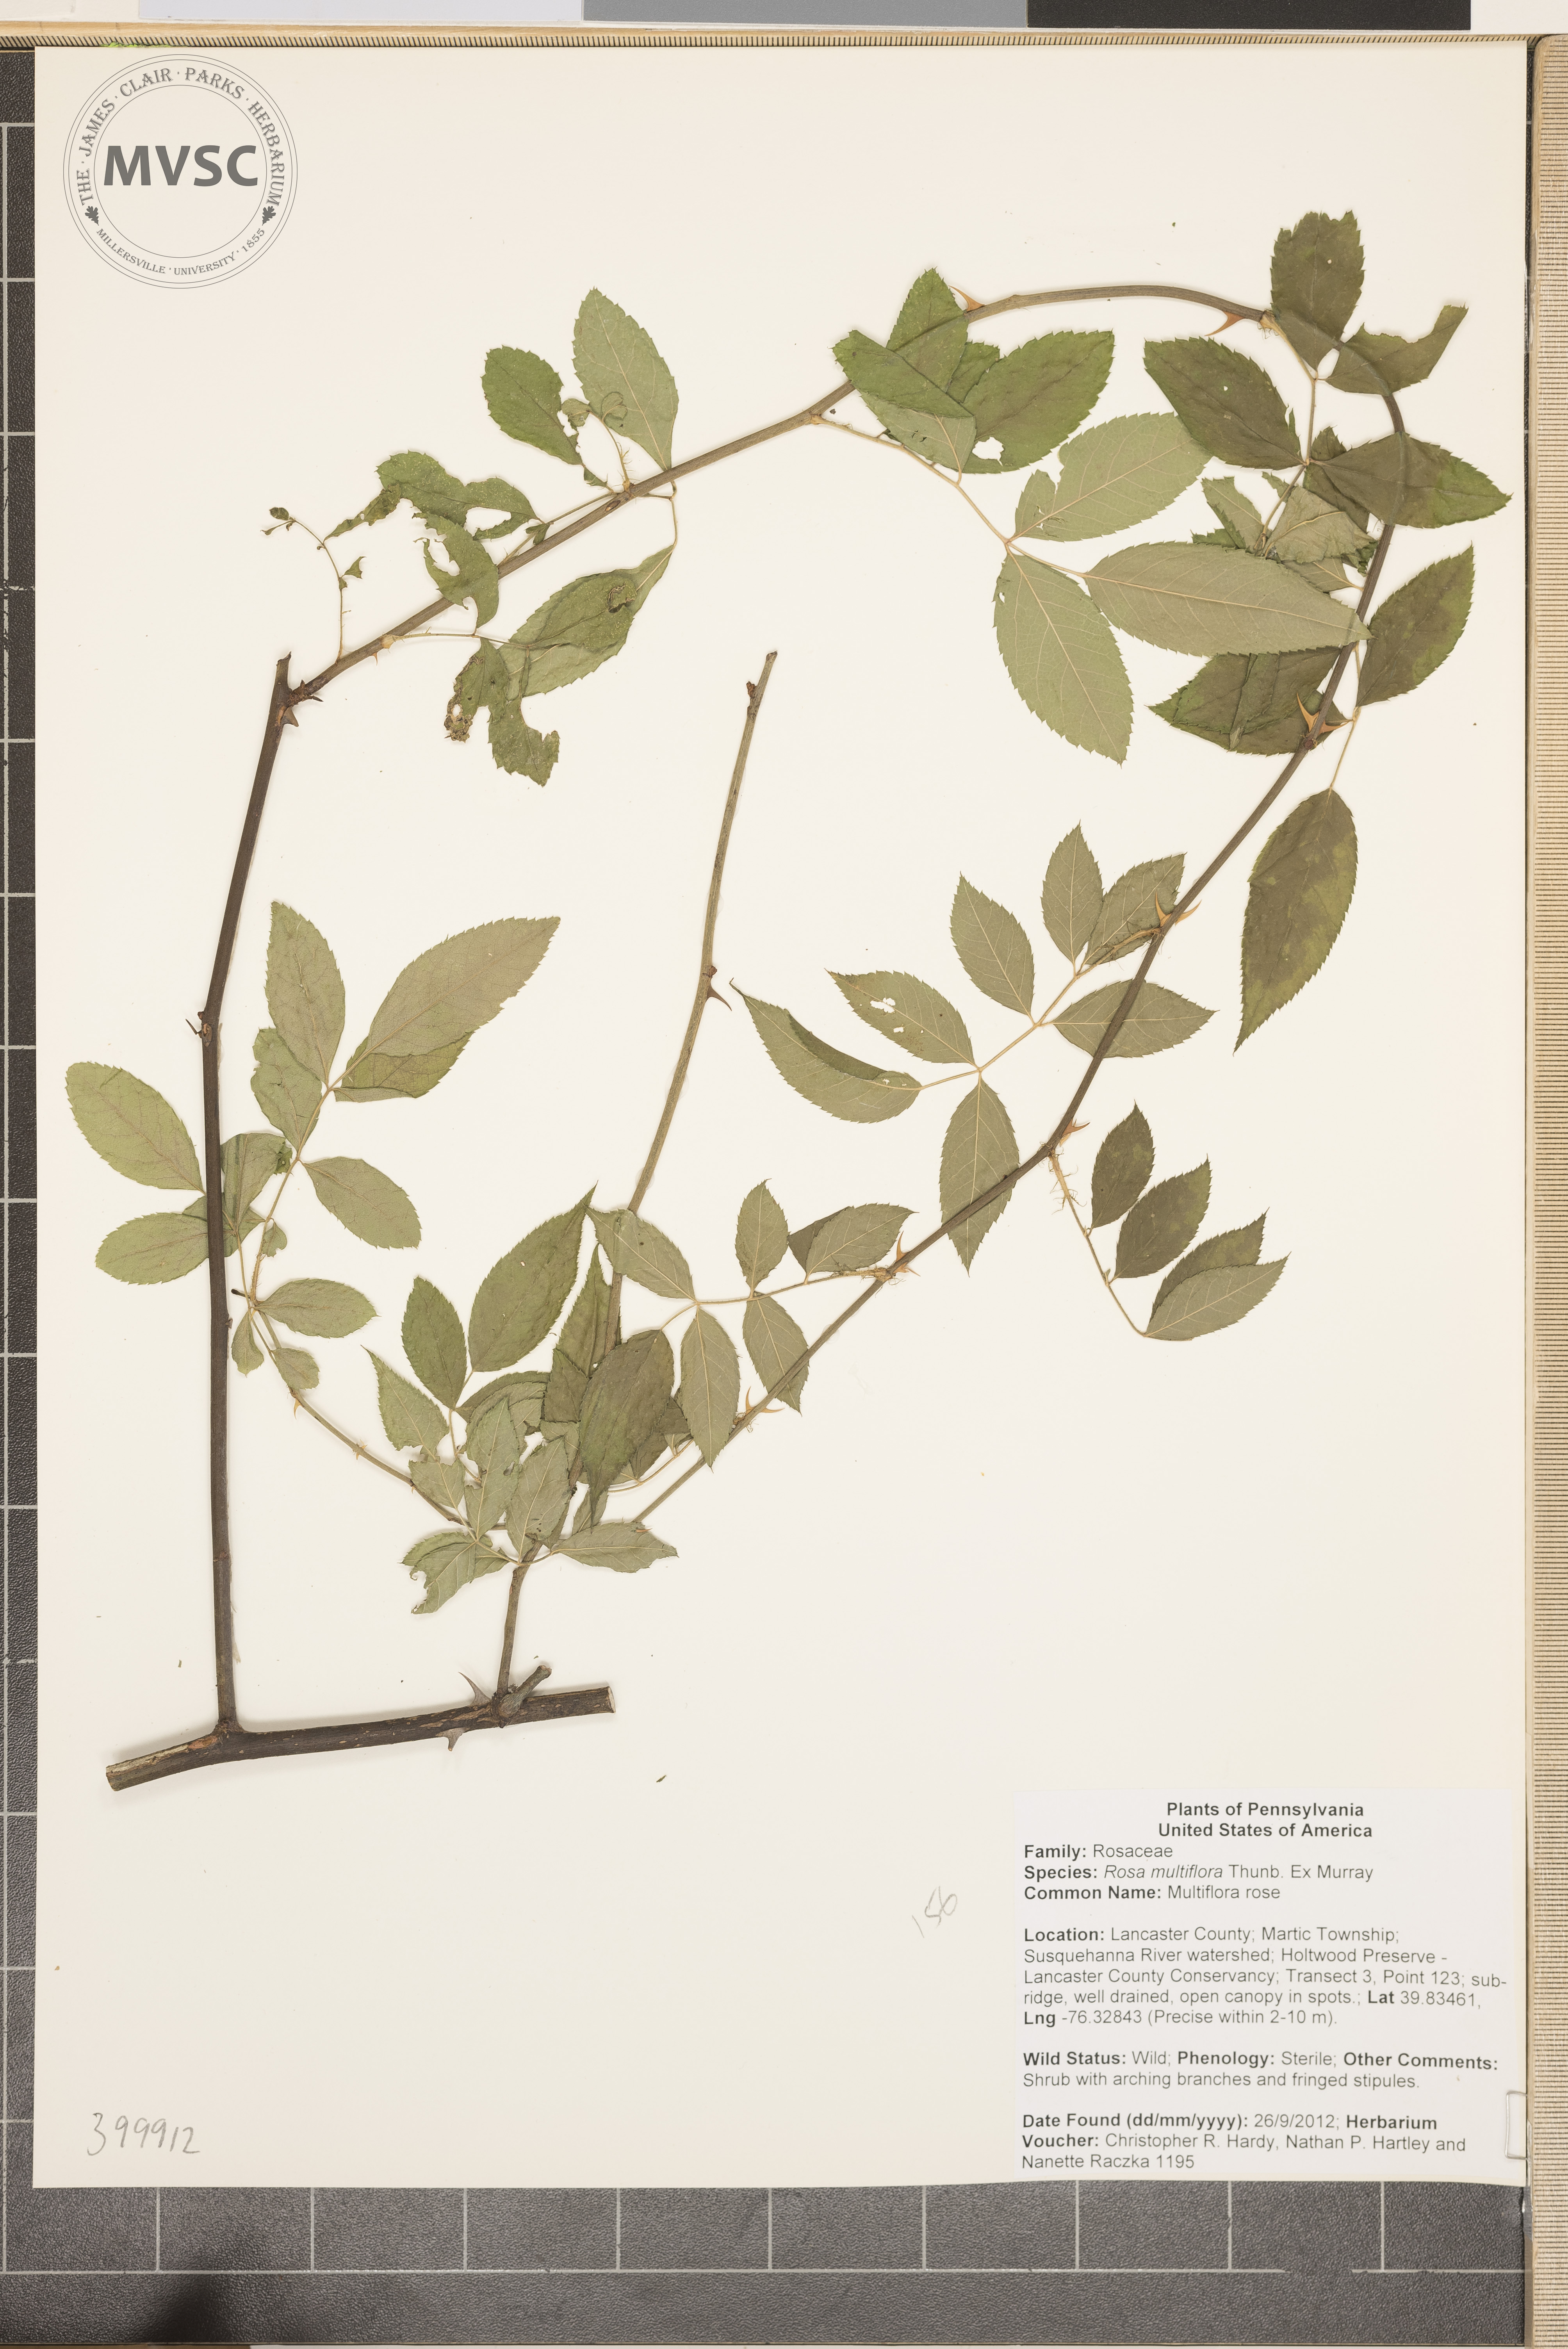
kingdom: Plantae
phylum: Tracheophyta
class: Magnoliopsida
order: Rosales
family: Rosaceae
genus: Rosa
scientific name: Rosa multiflora
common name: Multiflora rose
